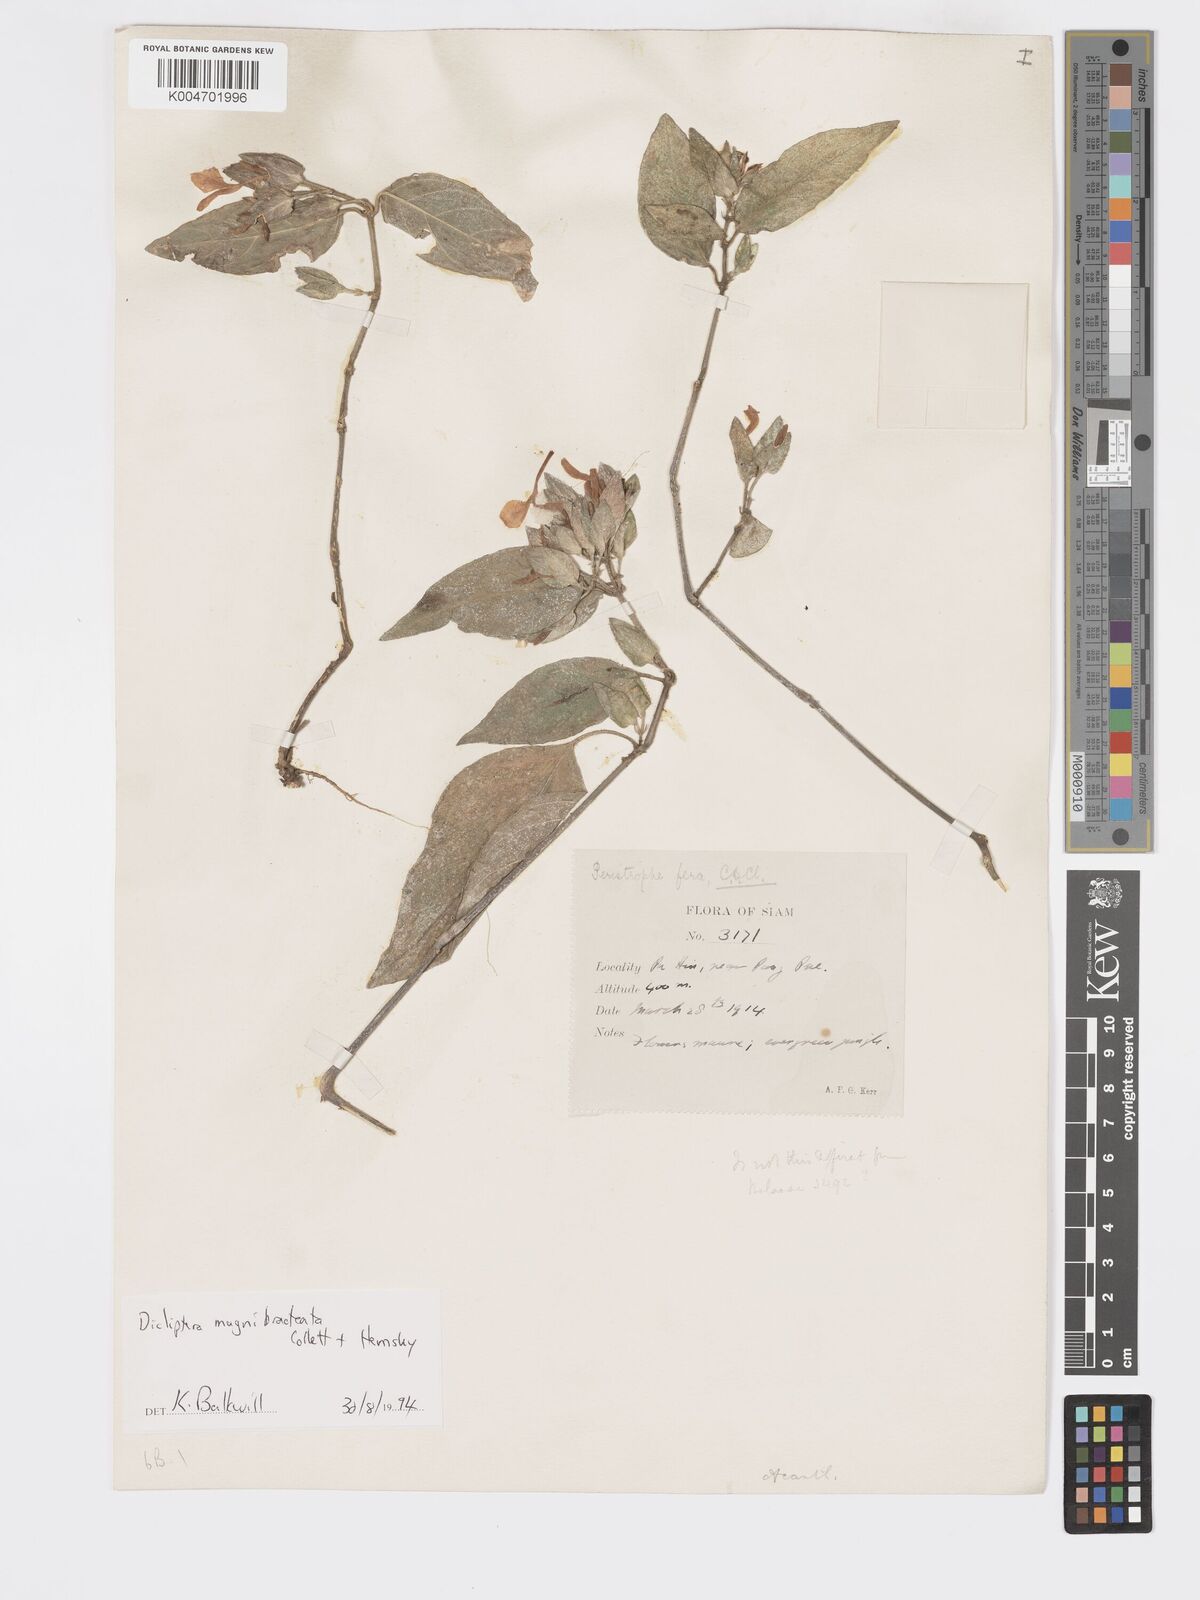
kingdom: Plantae
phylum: Tracheophyta
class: Magnoliopsida
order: Lamiales
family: Acanthaceae
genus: Dicliptera
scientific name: Dicliptera magnibracteata
